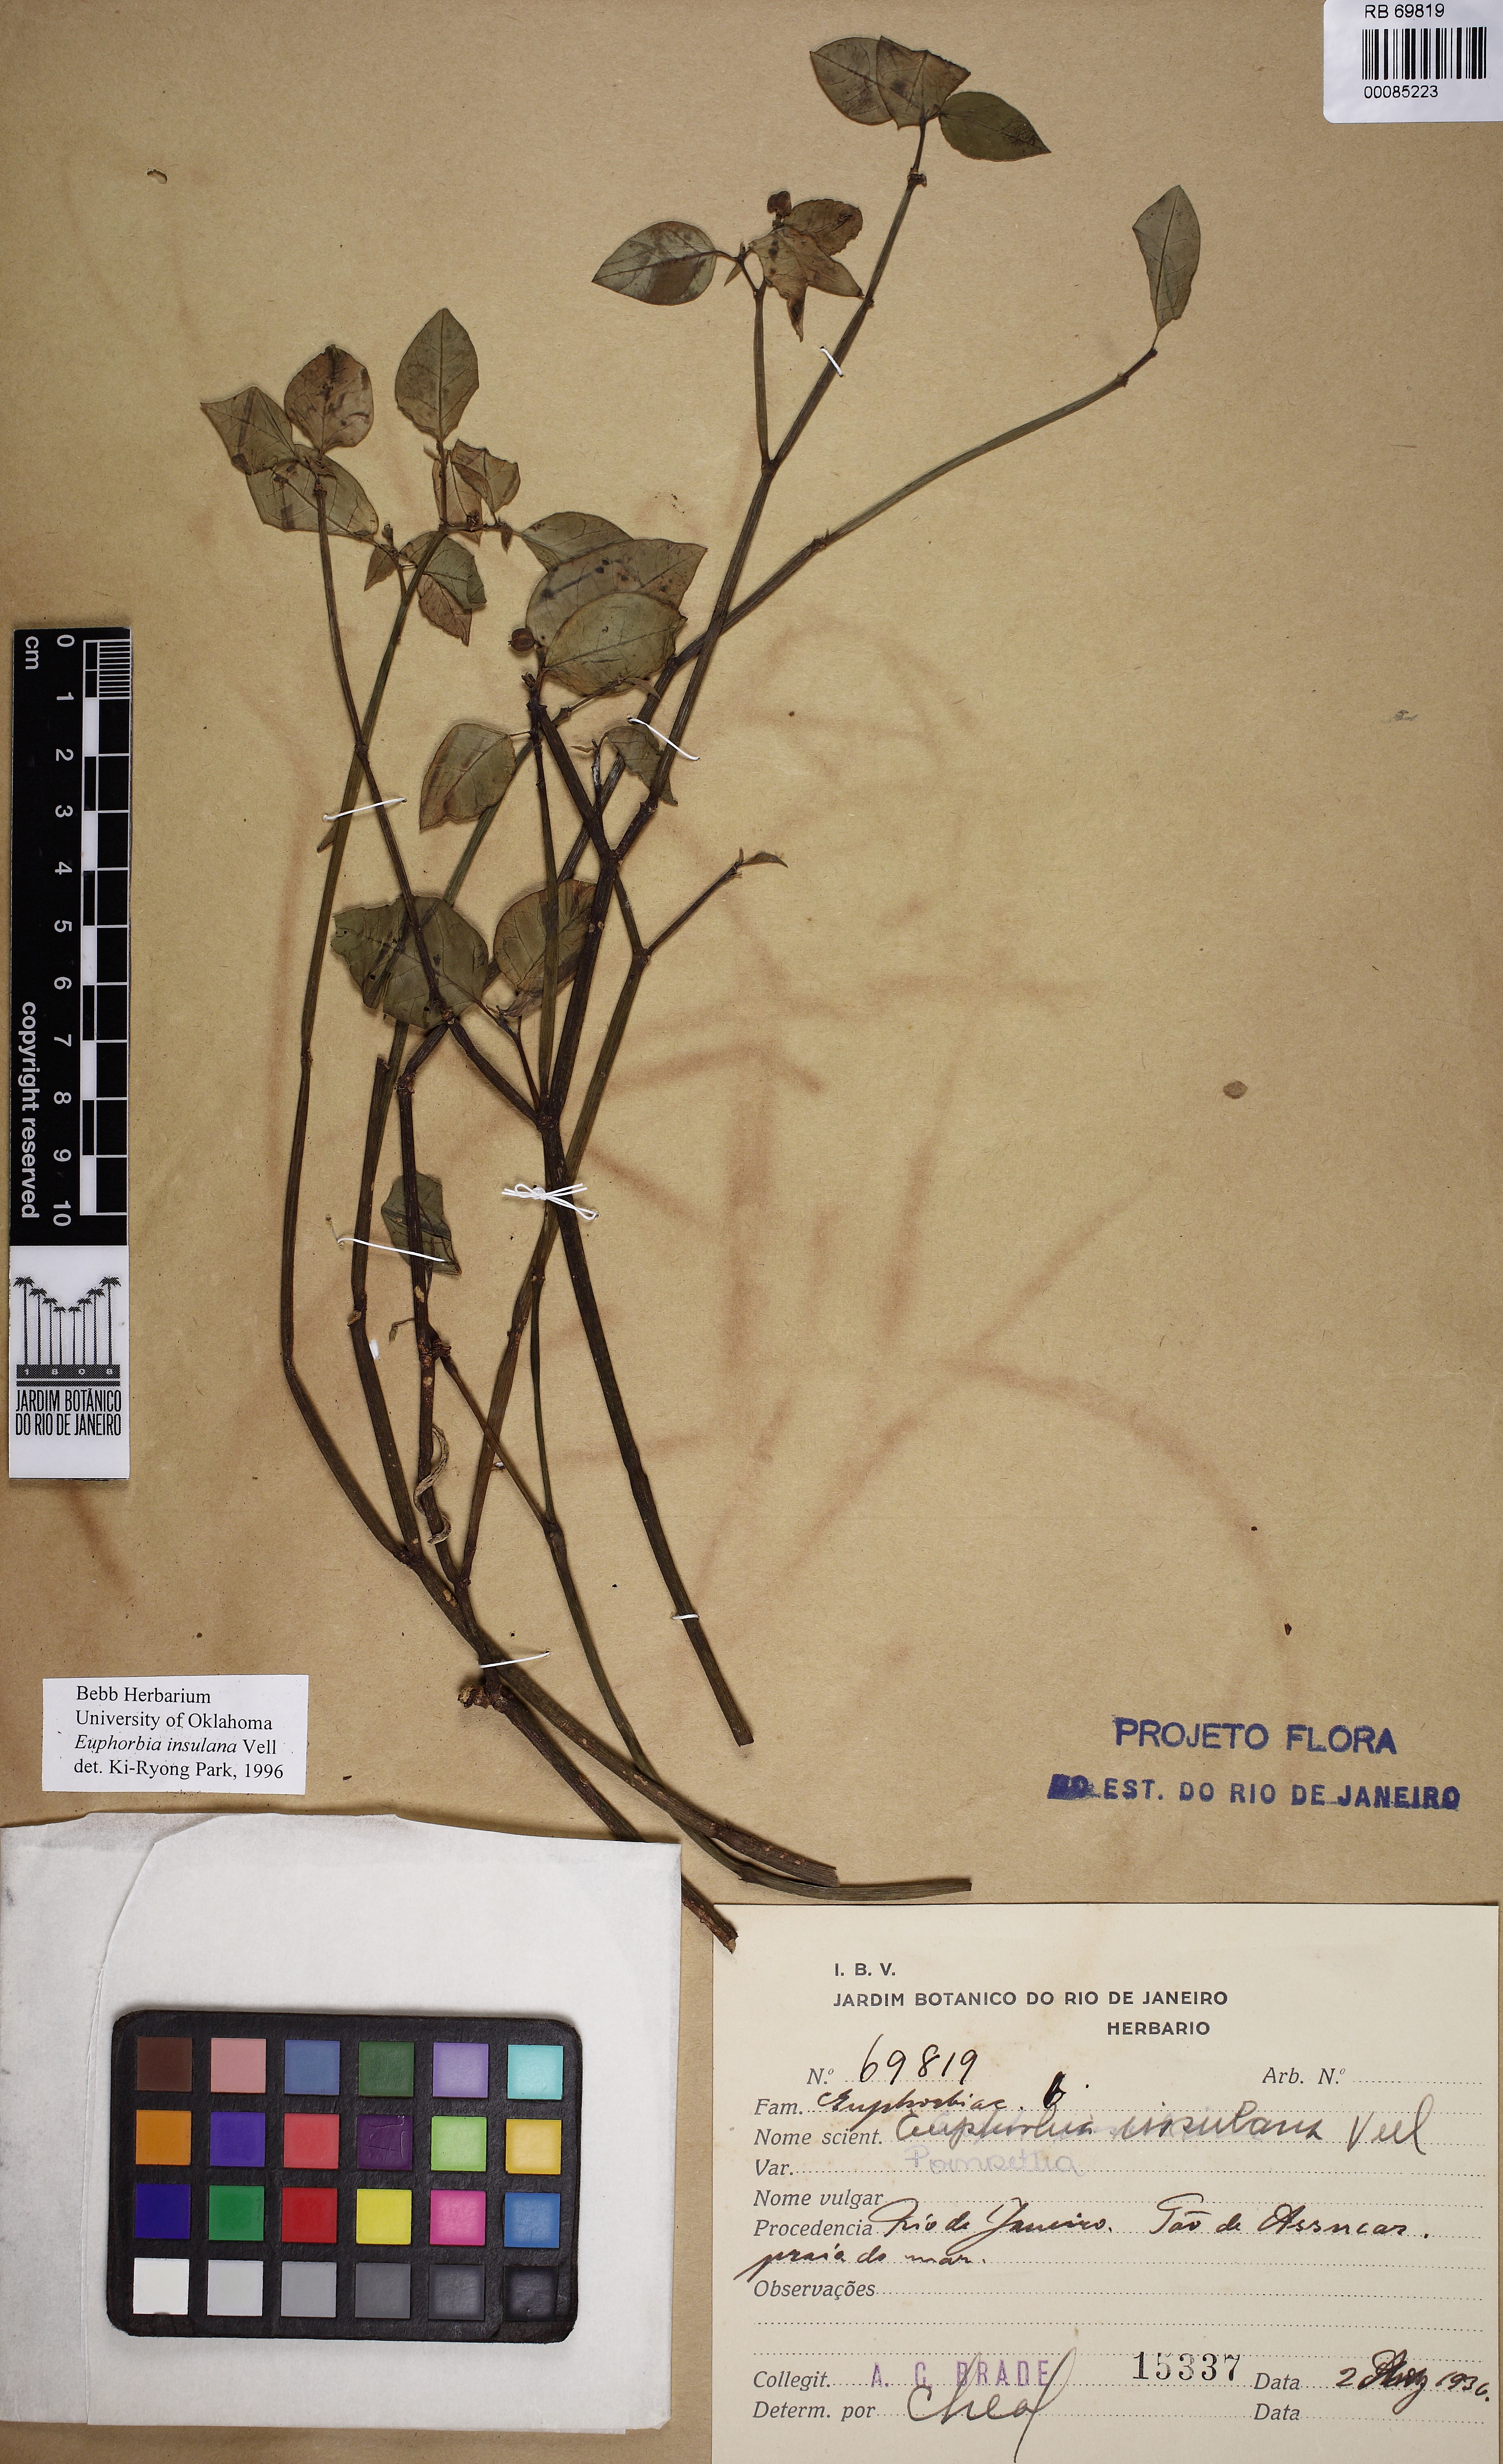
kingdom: Plantae
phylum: Tracheophyta
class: Magnoliopsida
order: Malpighiales
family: Euphorbiaceae
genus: Euphorbia
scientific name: Euphorbia insulana
